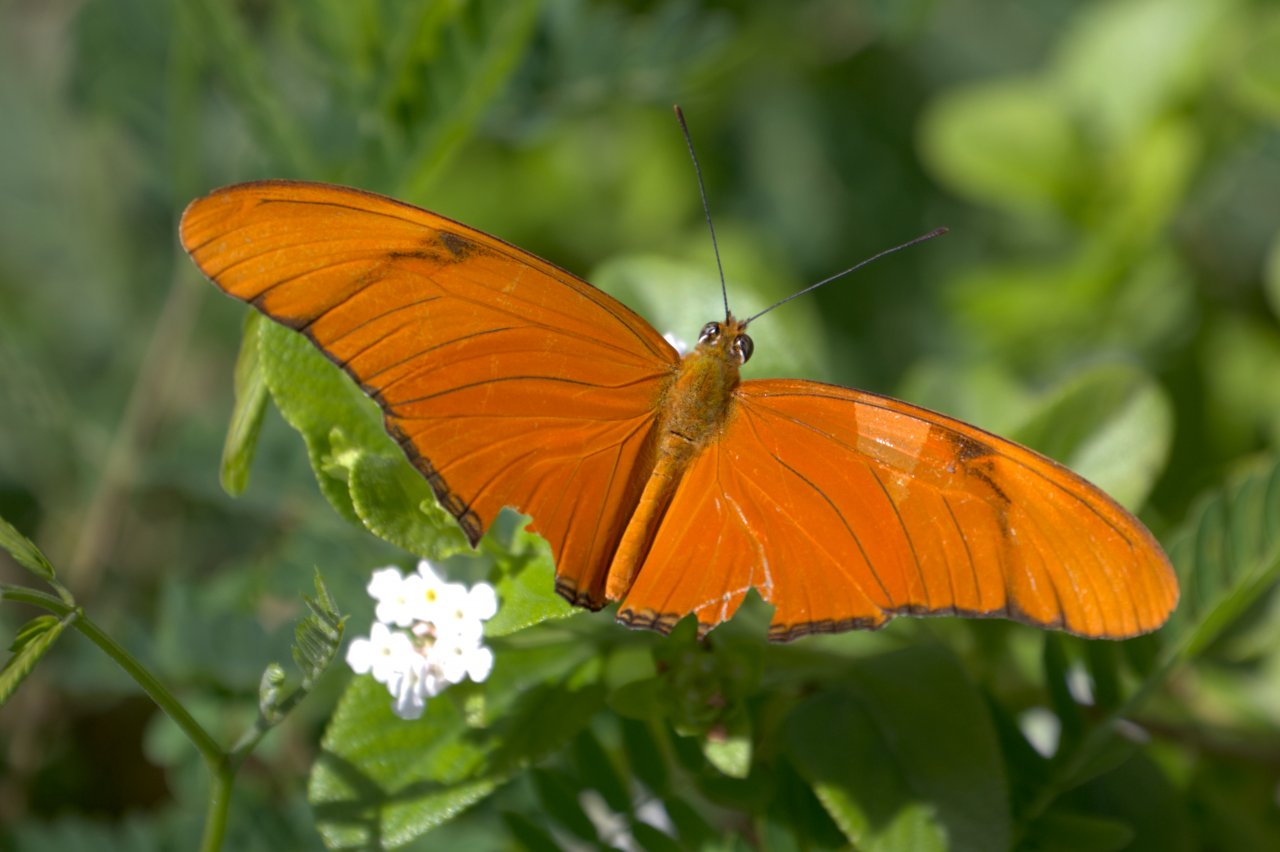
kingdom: Animalia
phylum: Arthropoda
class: Insecta
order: Lepidoptera
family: Nymphalidae
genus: Dryas
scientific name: Dryas iulia
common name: Julia
